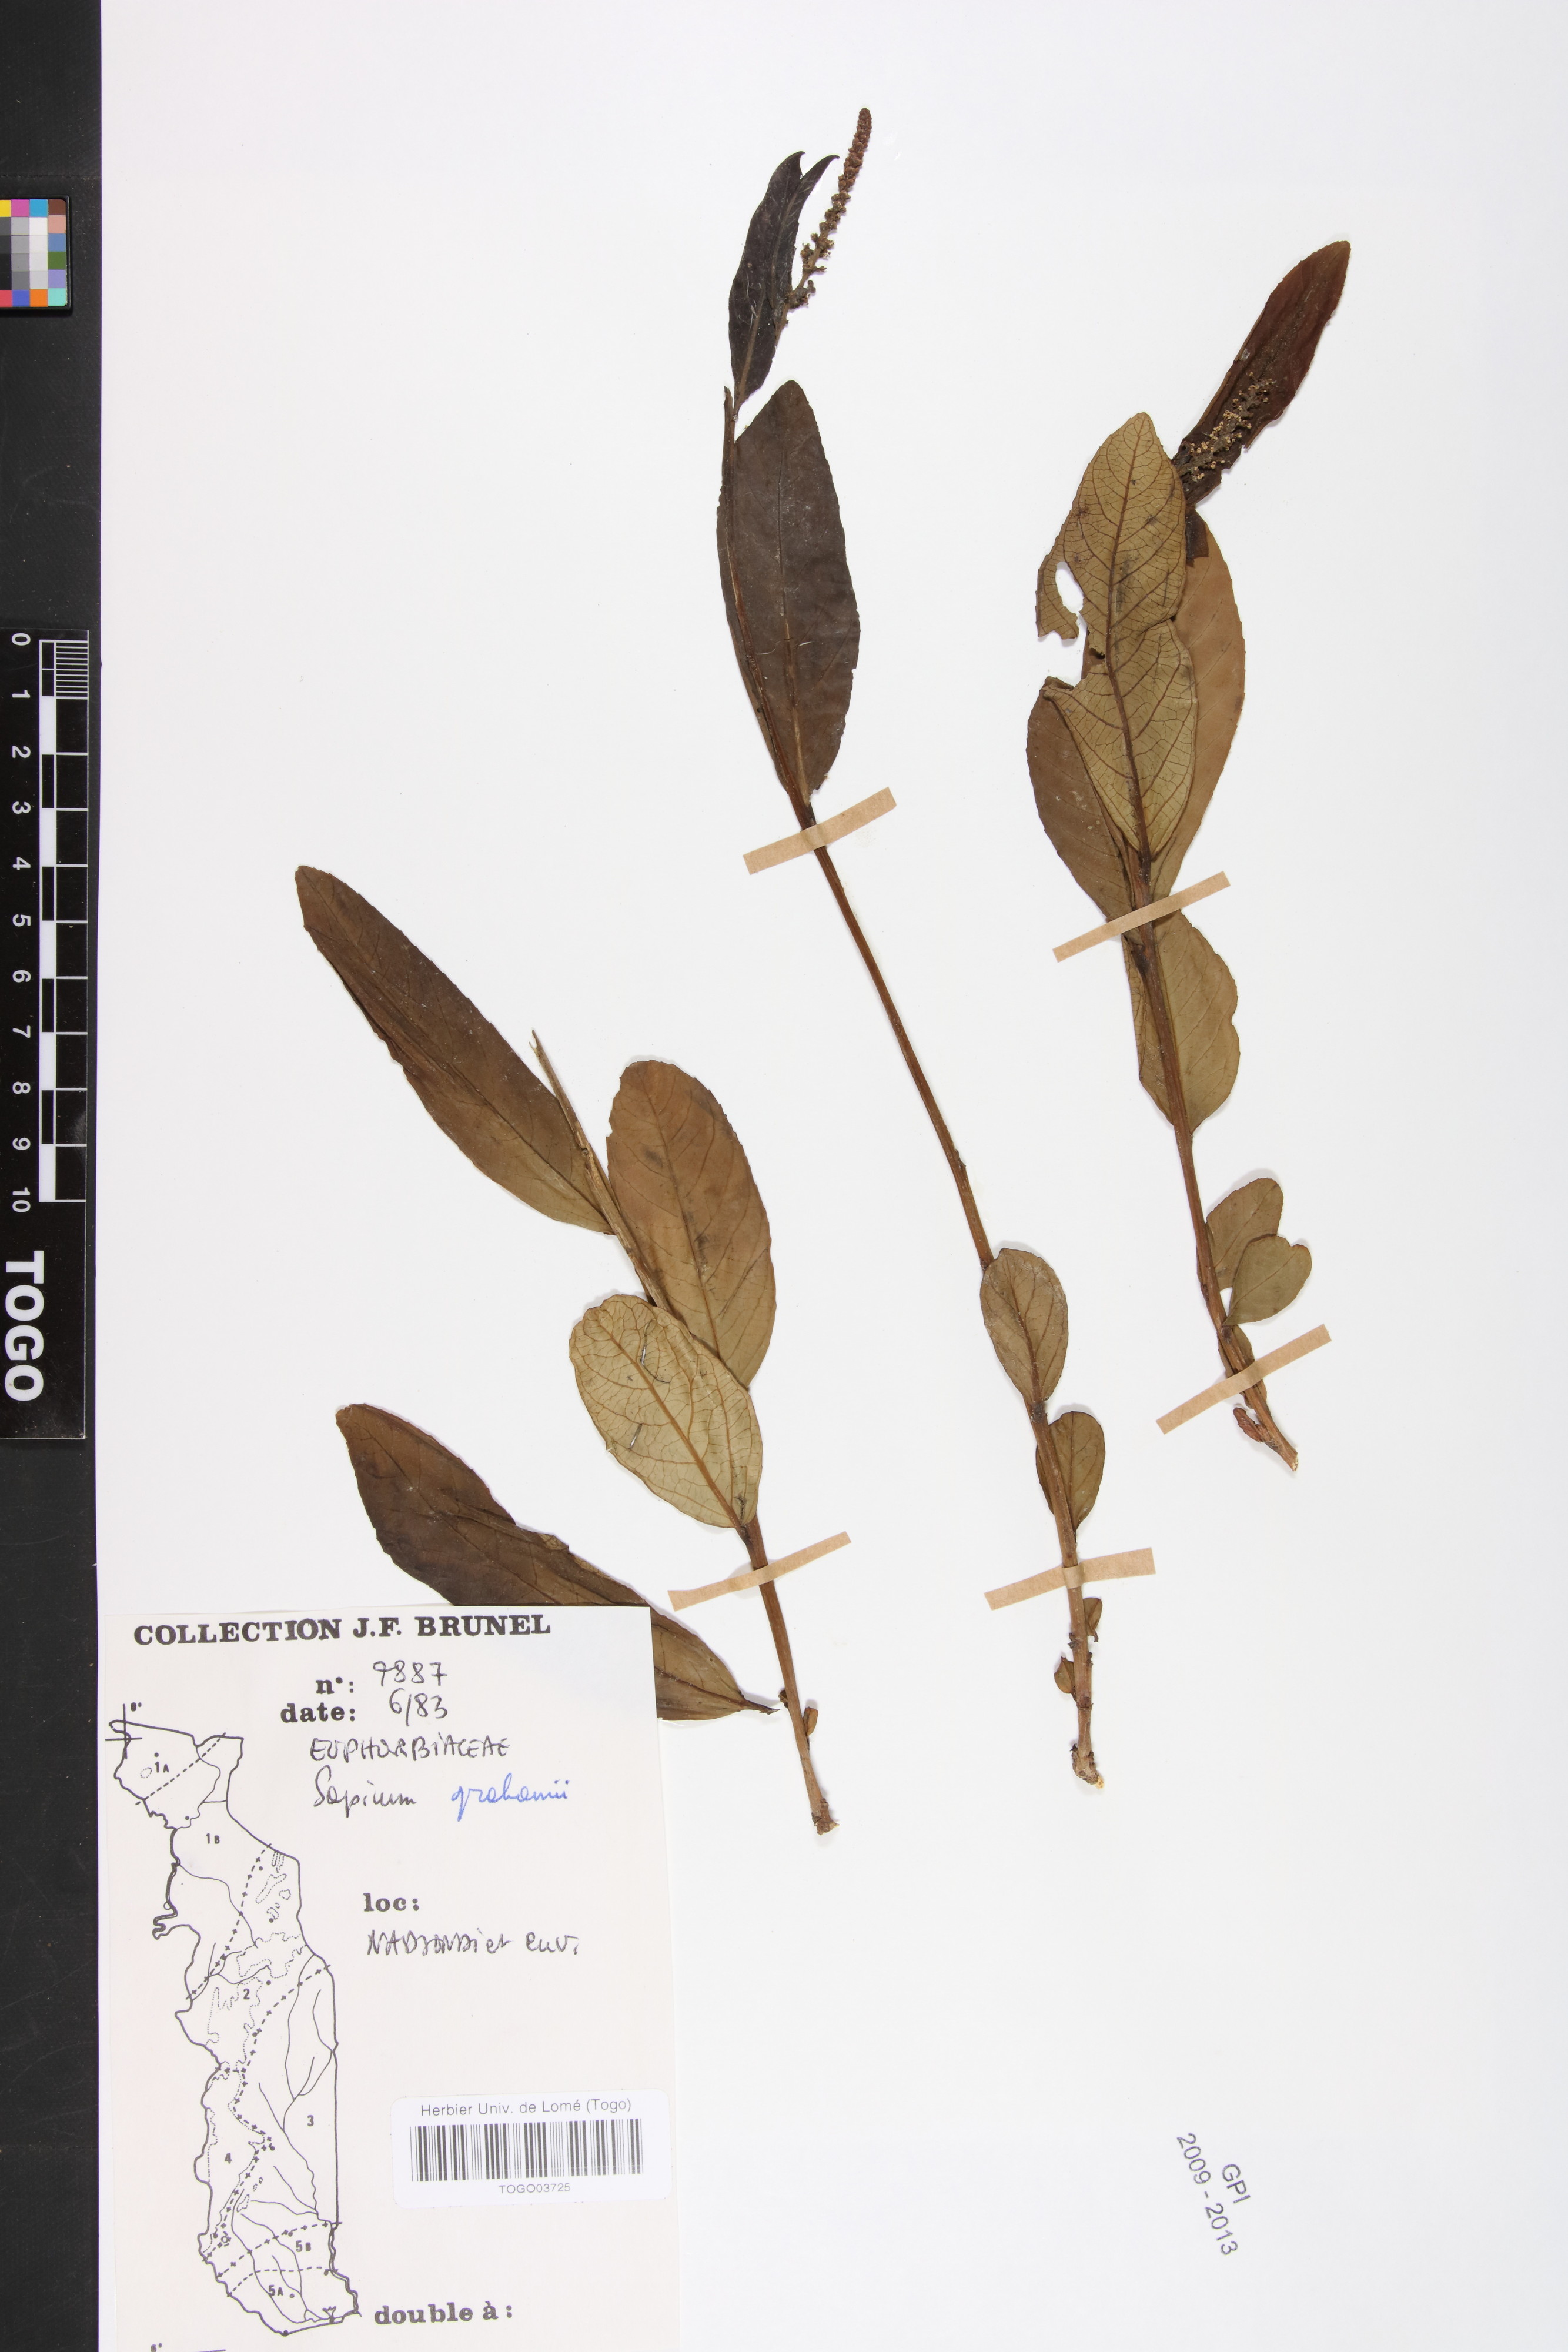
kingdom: Plantae
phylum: Tracheophyta
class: Magnoliopsida
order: Malpighiales
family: Euphorbiaceae
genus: Excoecaria
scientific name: Excoecaria grahamii
